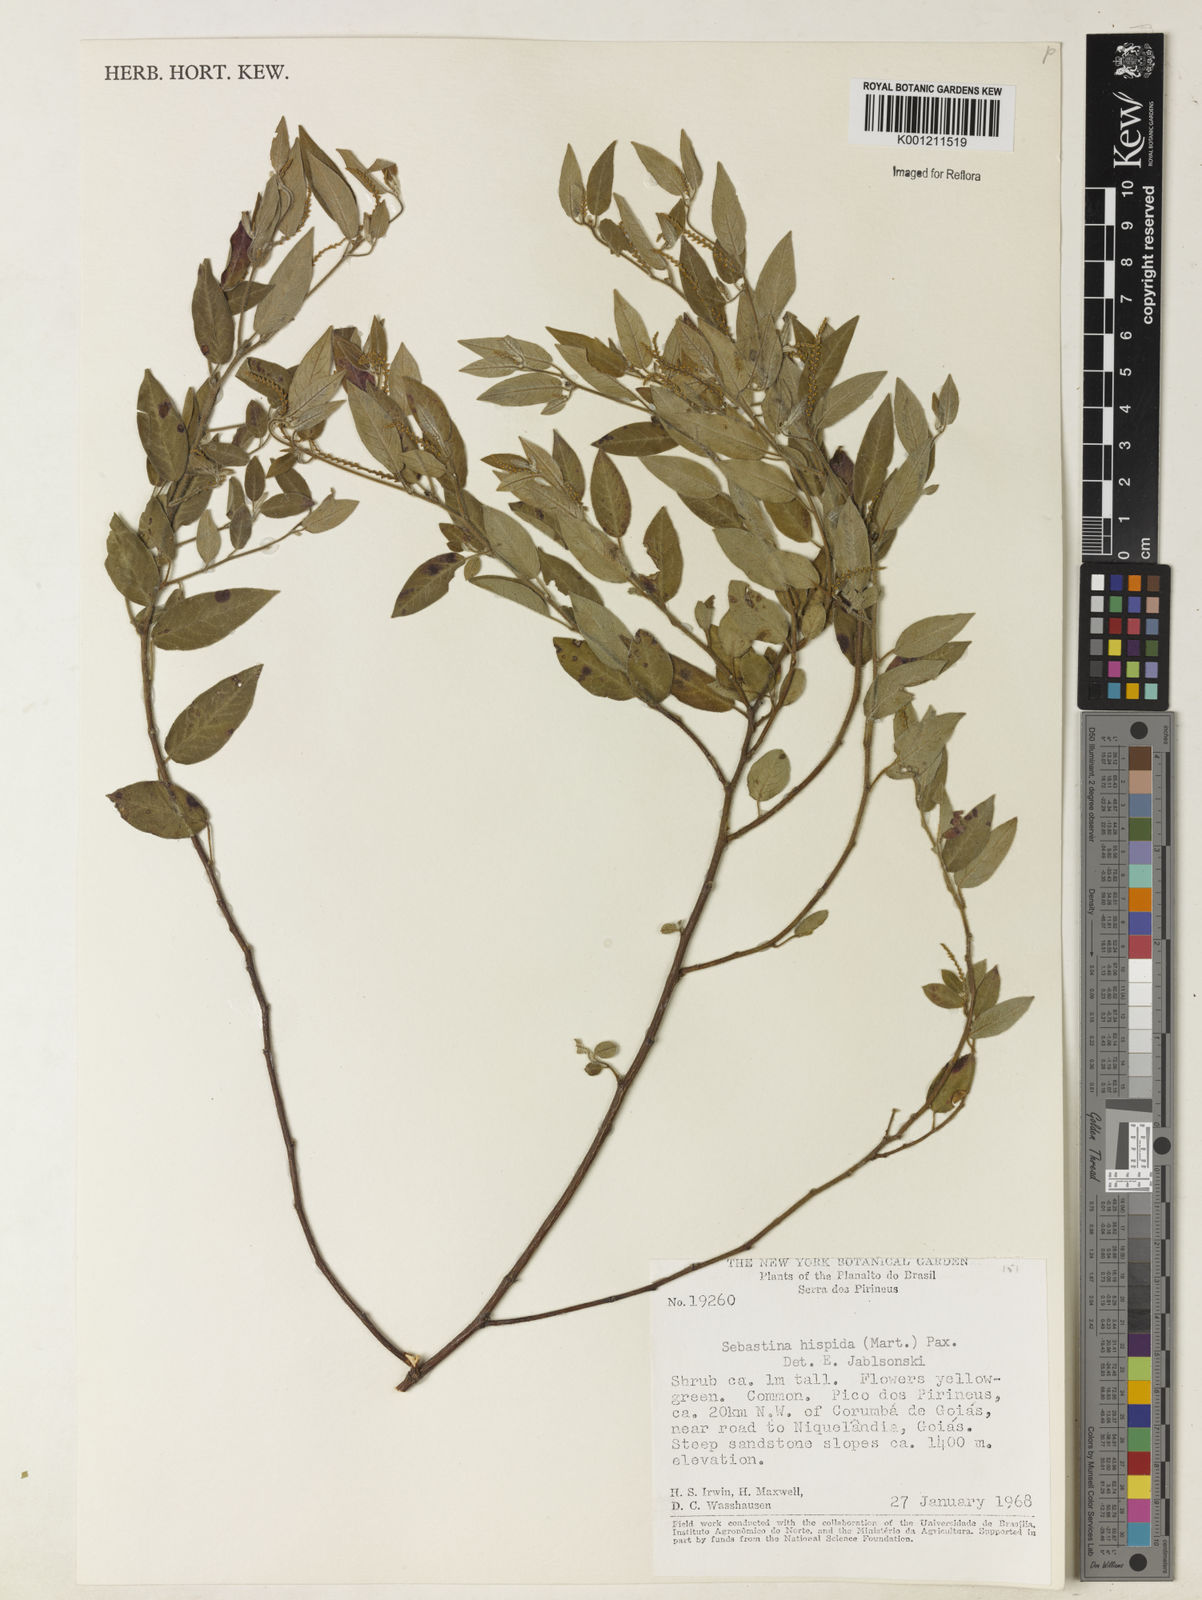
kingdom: Plantae
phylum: Tracheophyta
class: Magnoliopsida
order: Malpighiales
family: Euphorbiaceae
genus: Microstachys
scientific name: Microstachys hispida
